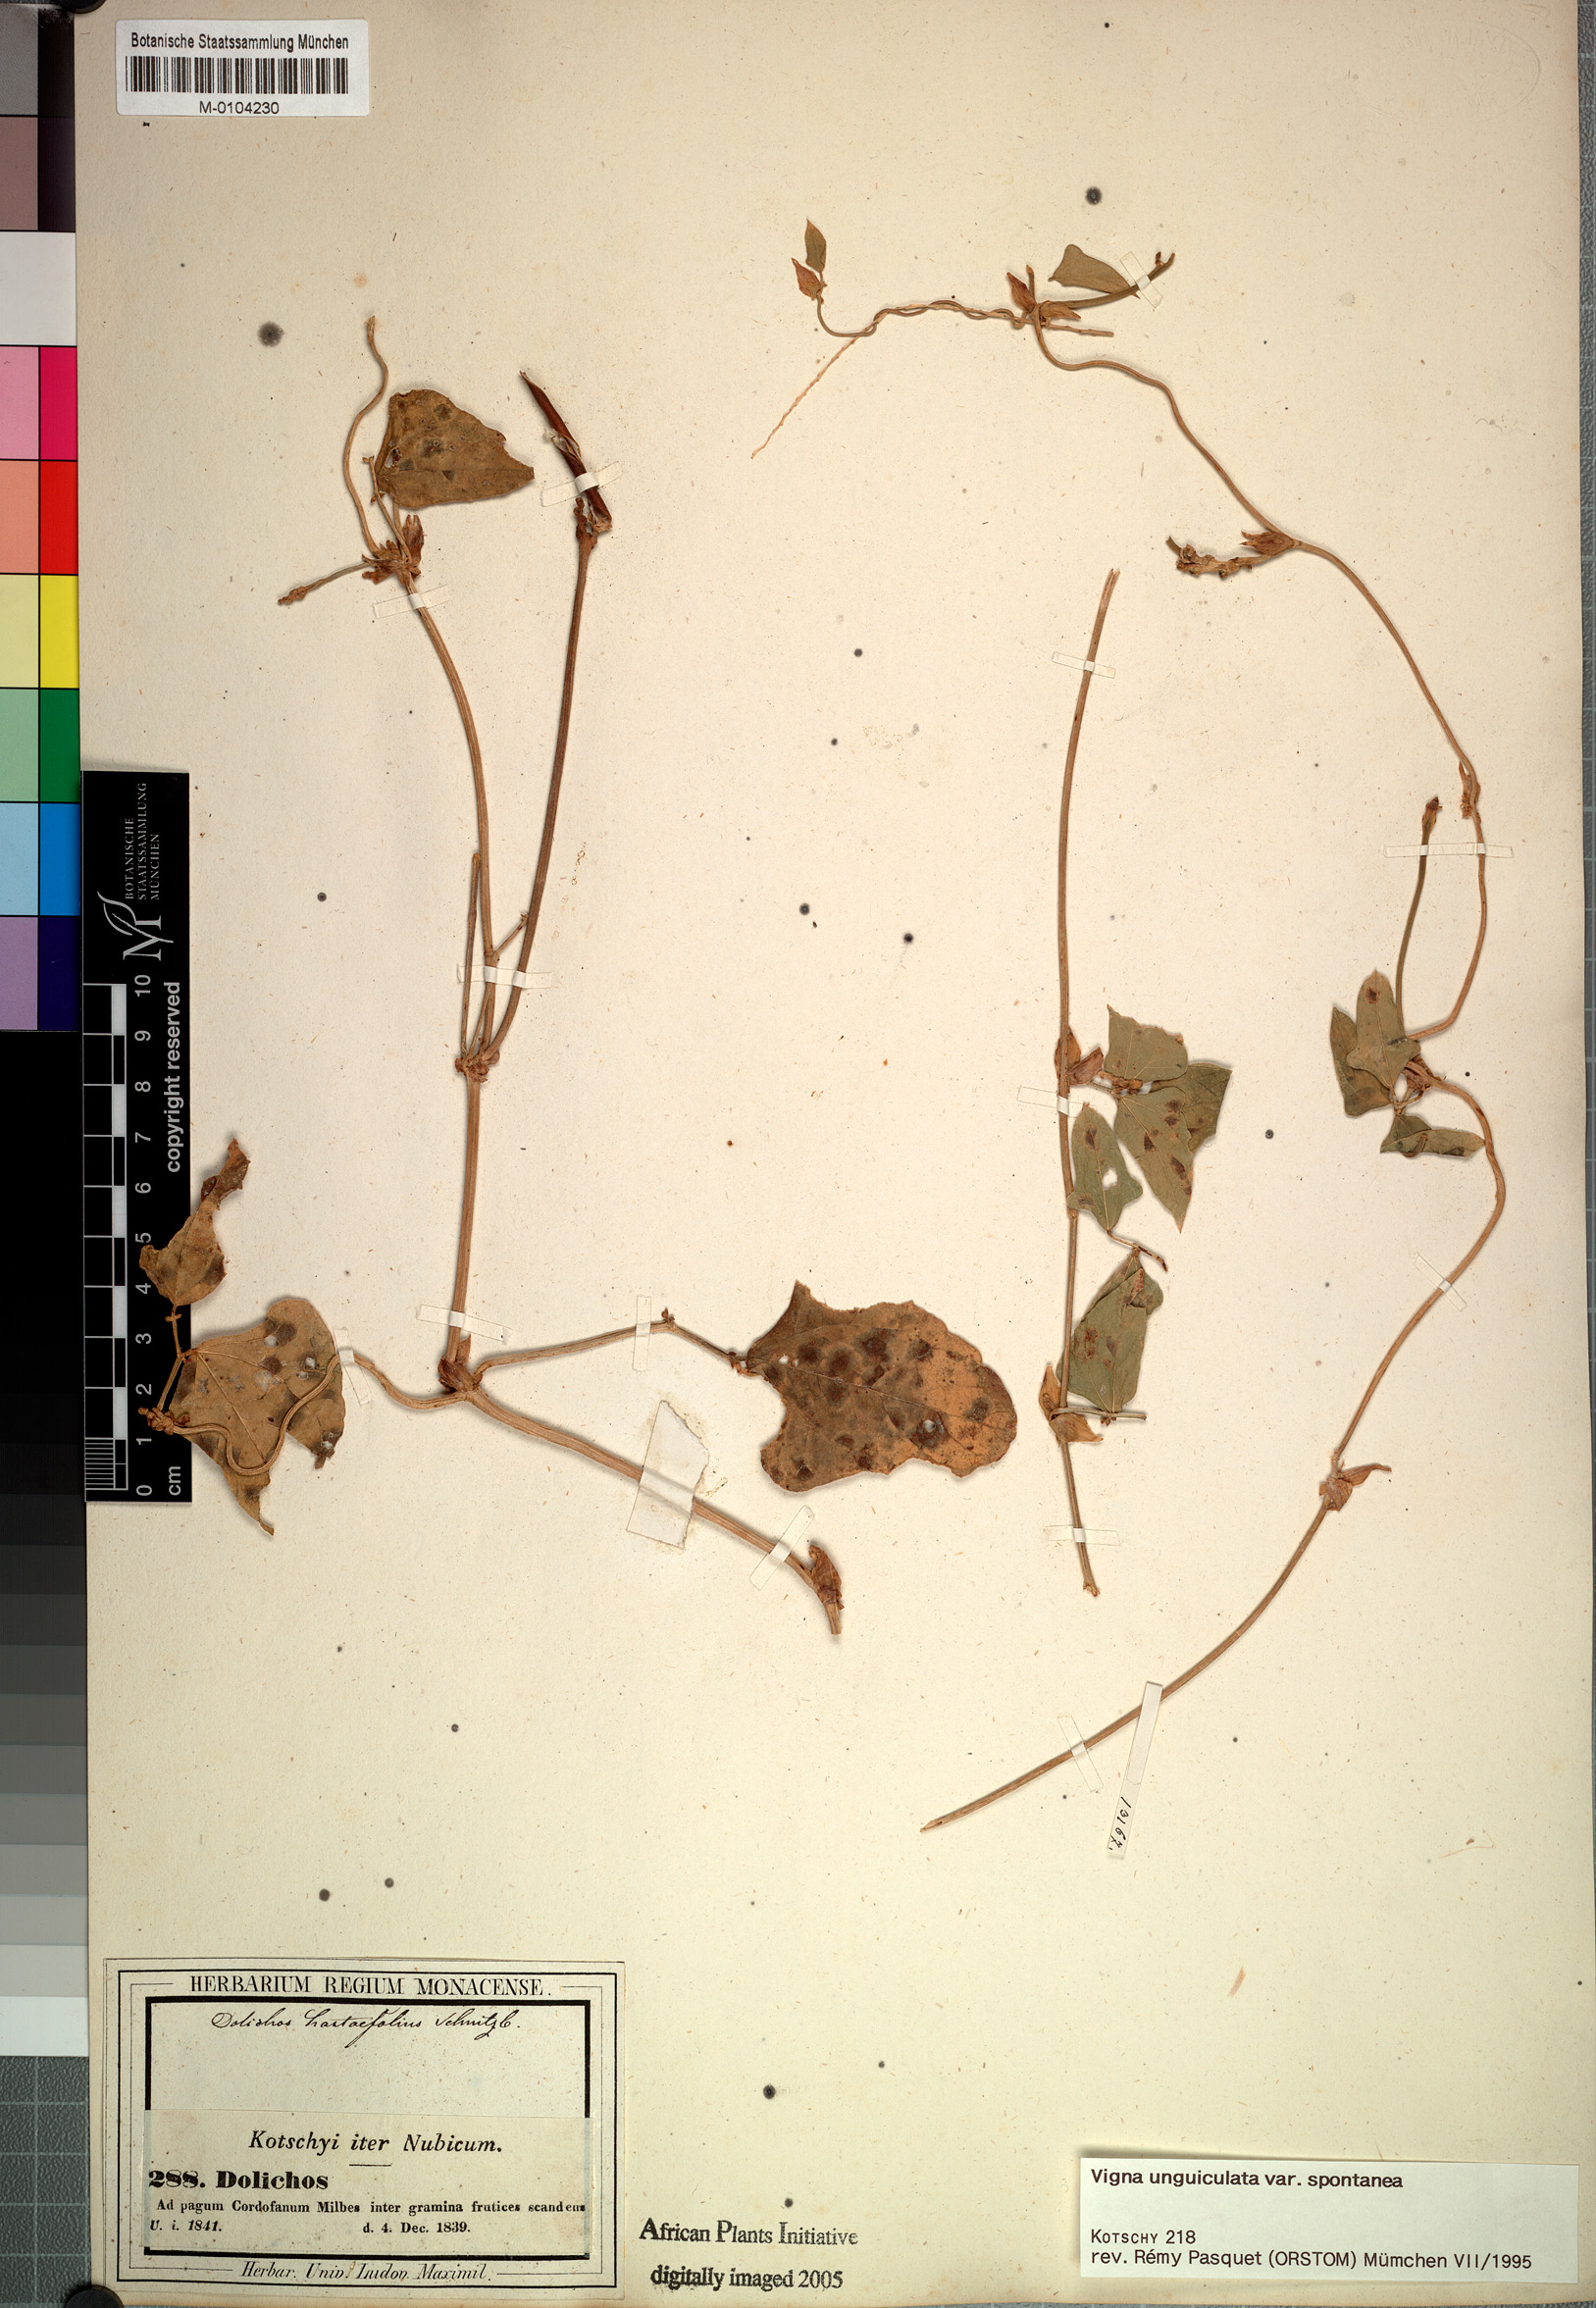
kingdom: Plantae
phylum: Tracheophyta
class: Magnoliopsida
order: Fabales
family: Fabaceae
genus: Vigna
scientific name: Vigna unguiculata
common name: Cowpea
